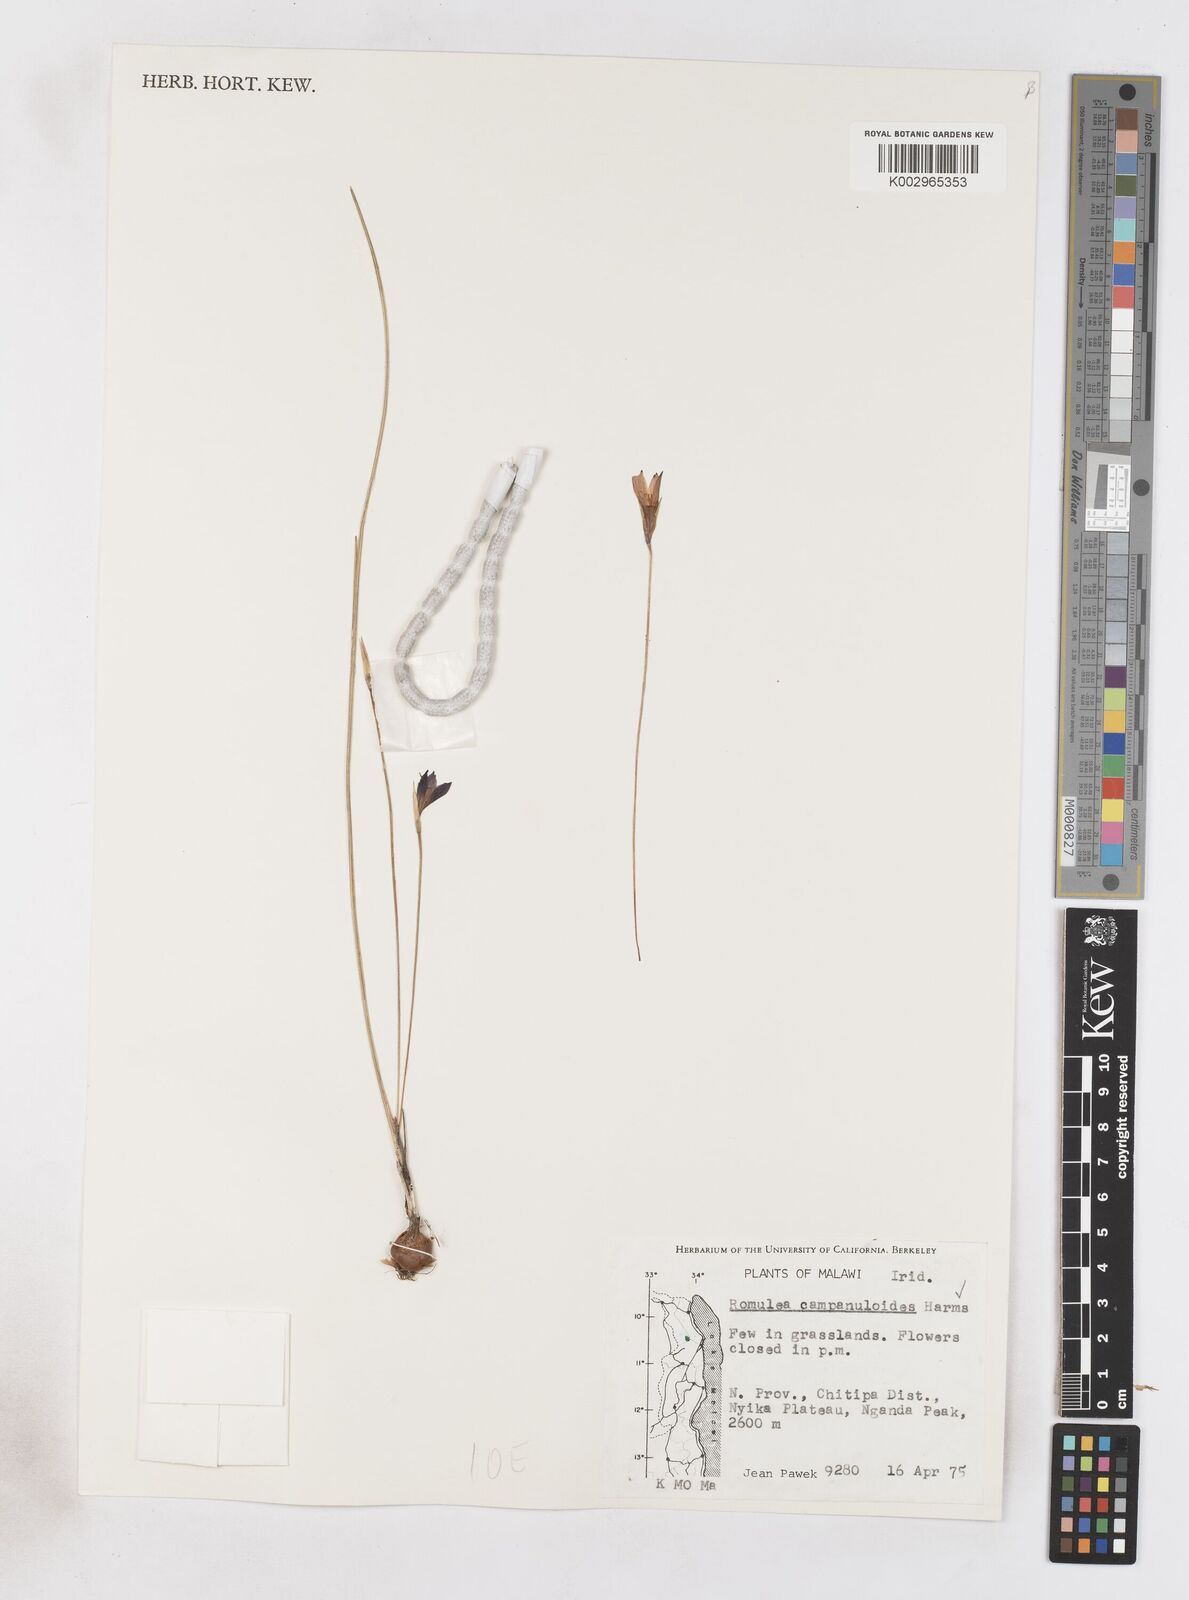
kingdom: Plantae
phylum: Tracheophyta
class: Liliopsida
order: Asparagales
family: Iridaceae
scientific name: Iridaceae
